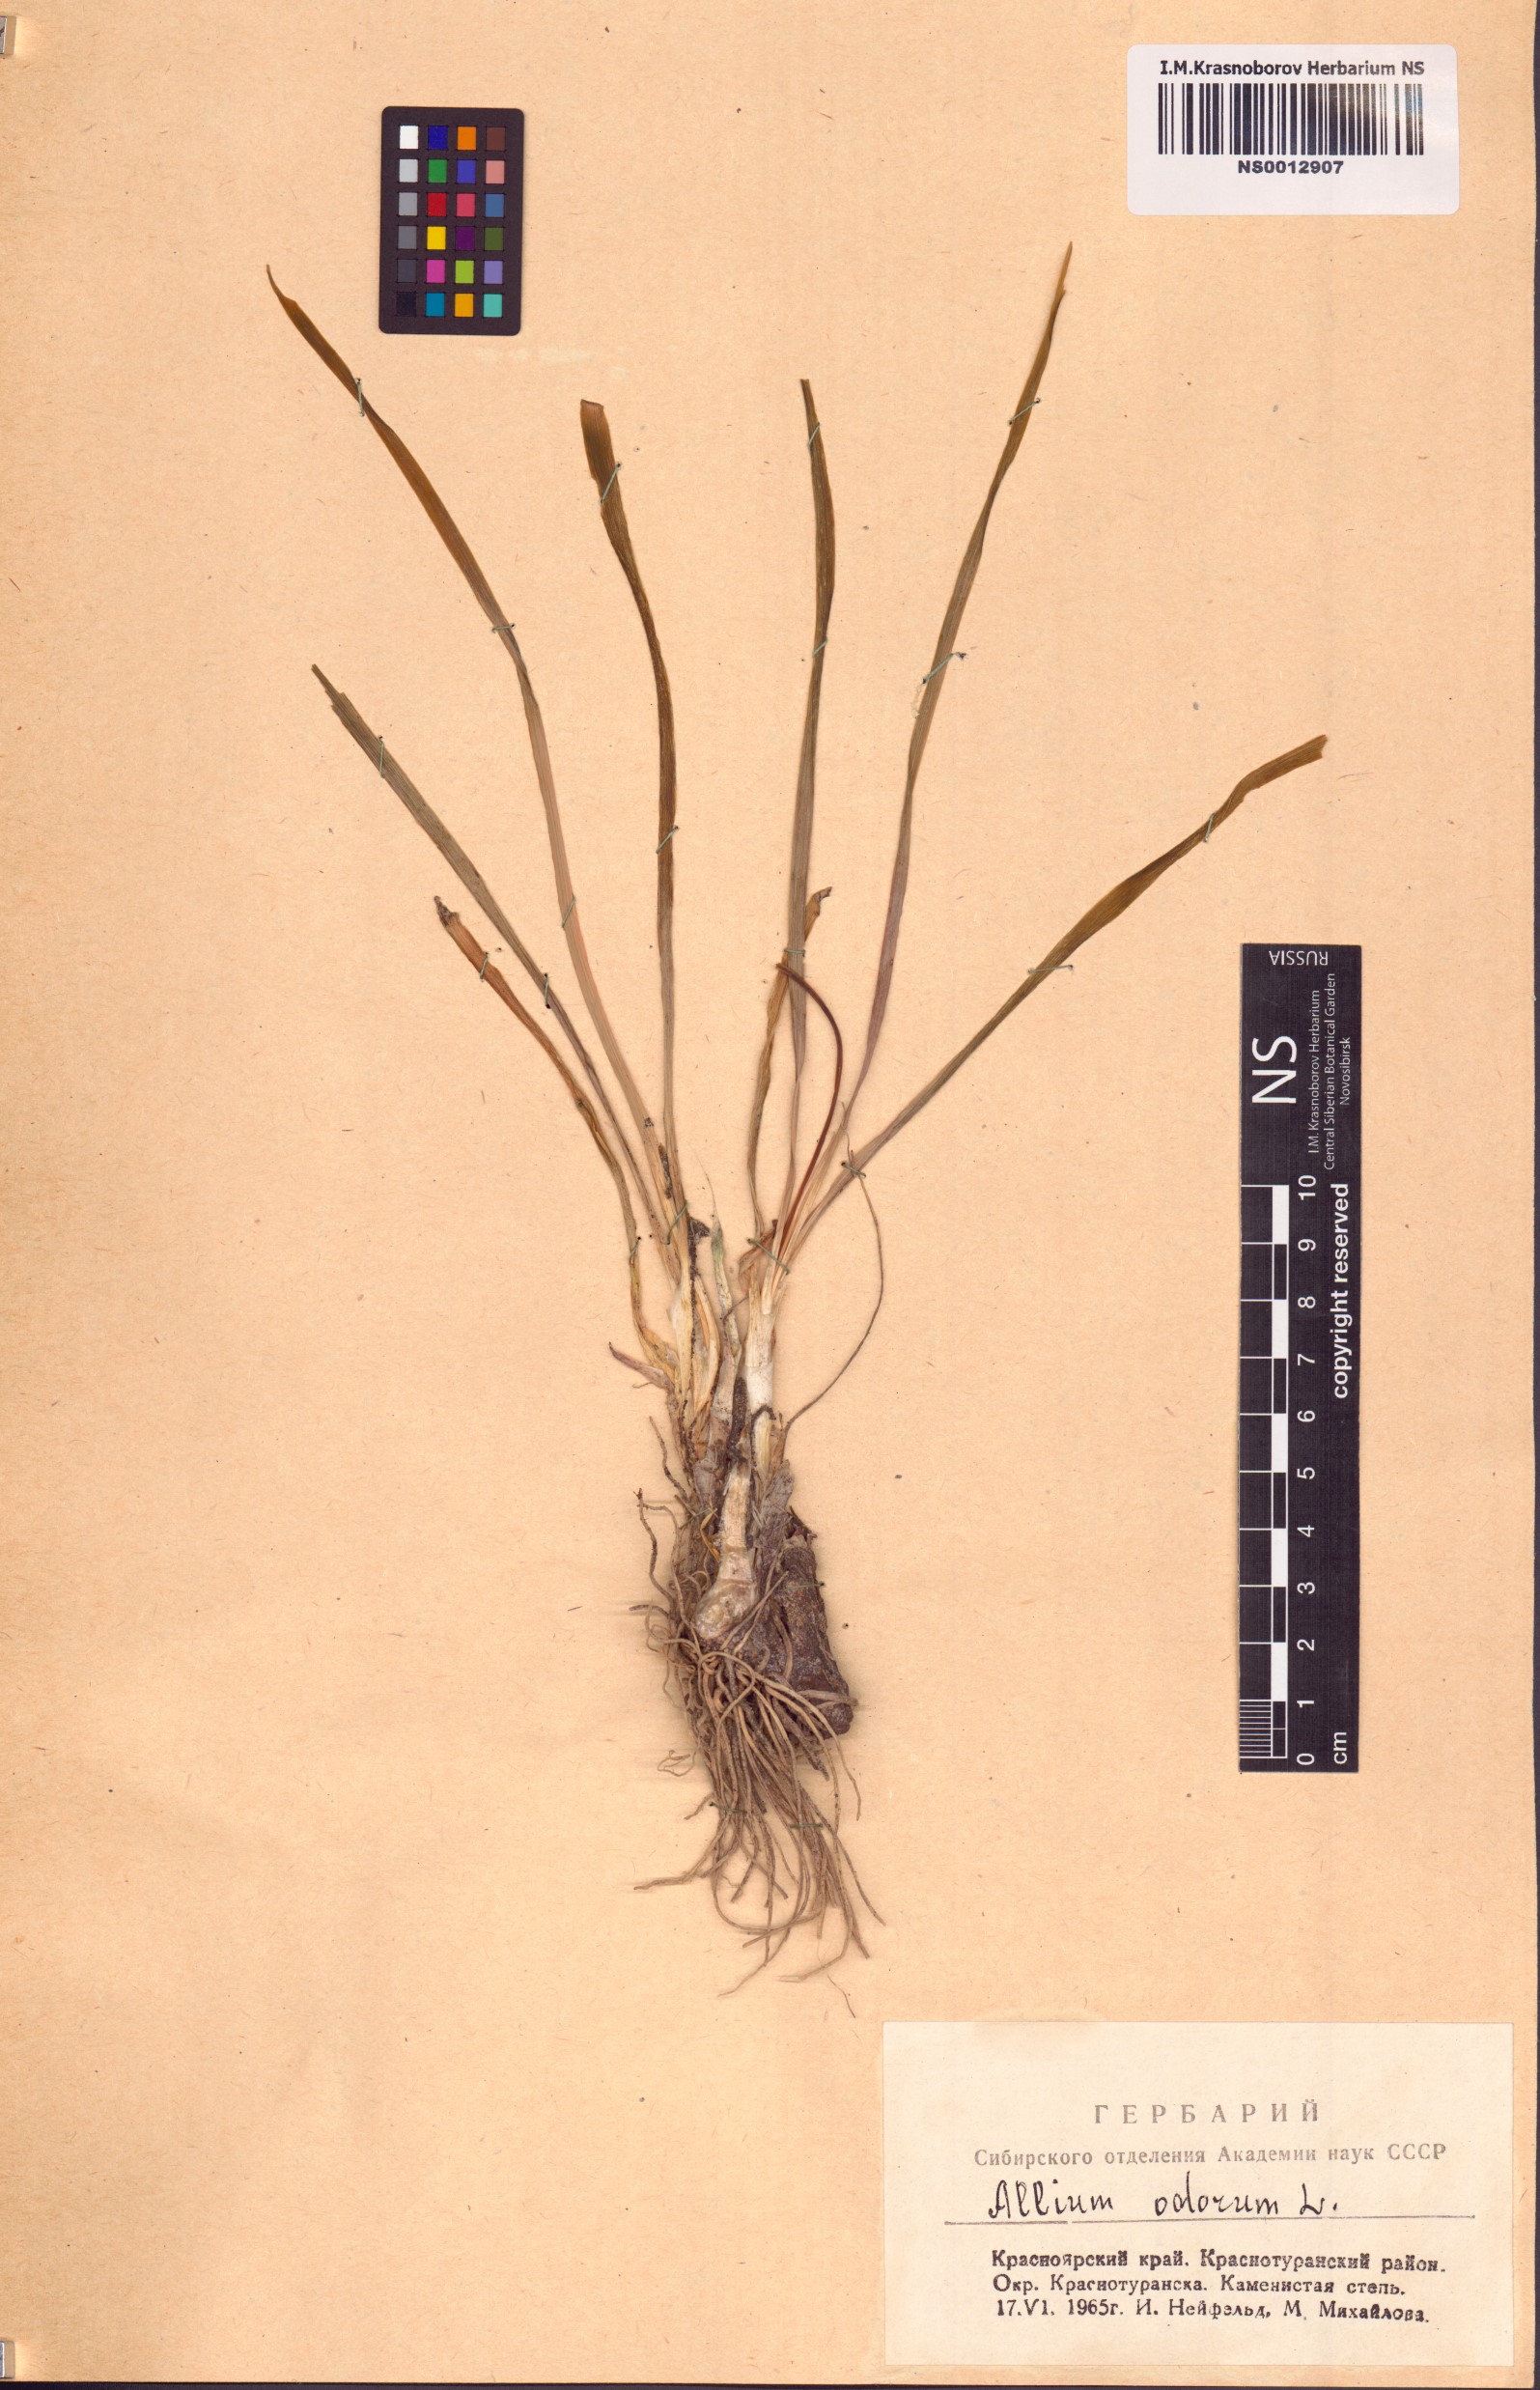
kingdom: Plantae
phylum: Tracheophyta
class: Liliopsida
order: Asparagales
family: Amaryllidaceae
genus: Allium
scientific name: Allium ramosum
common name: Fragrant garlic
